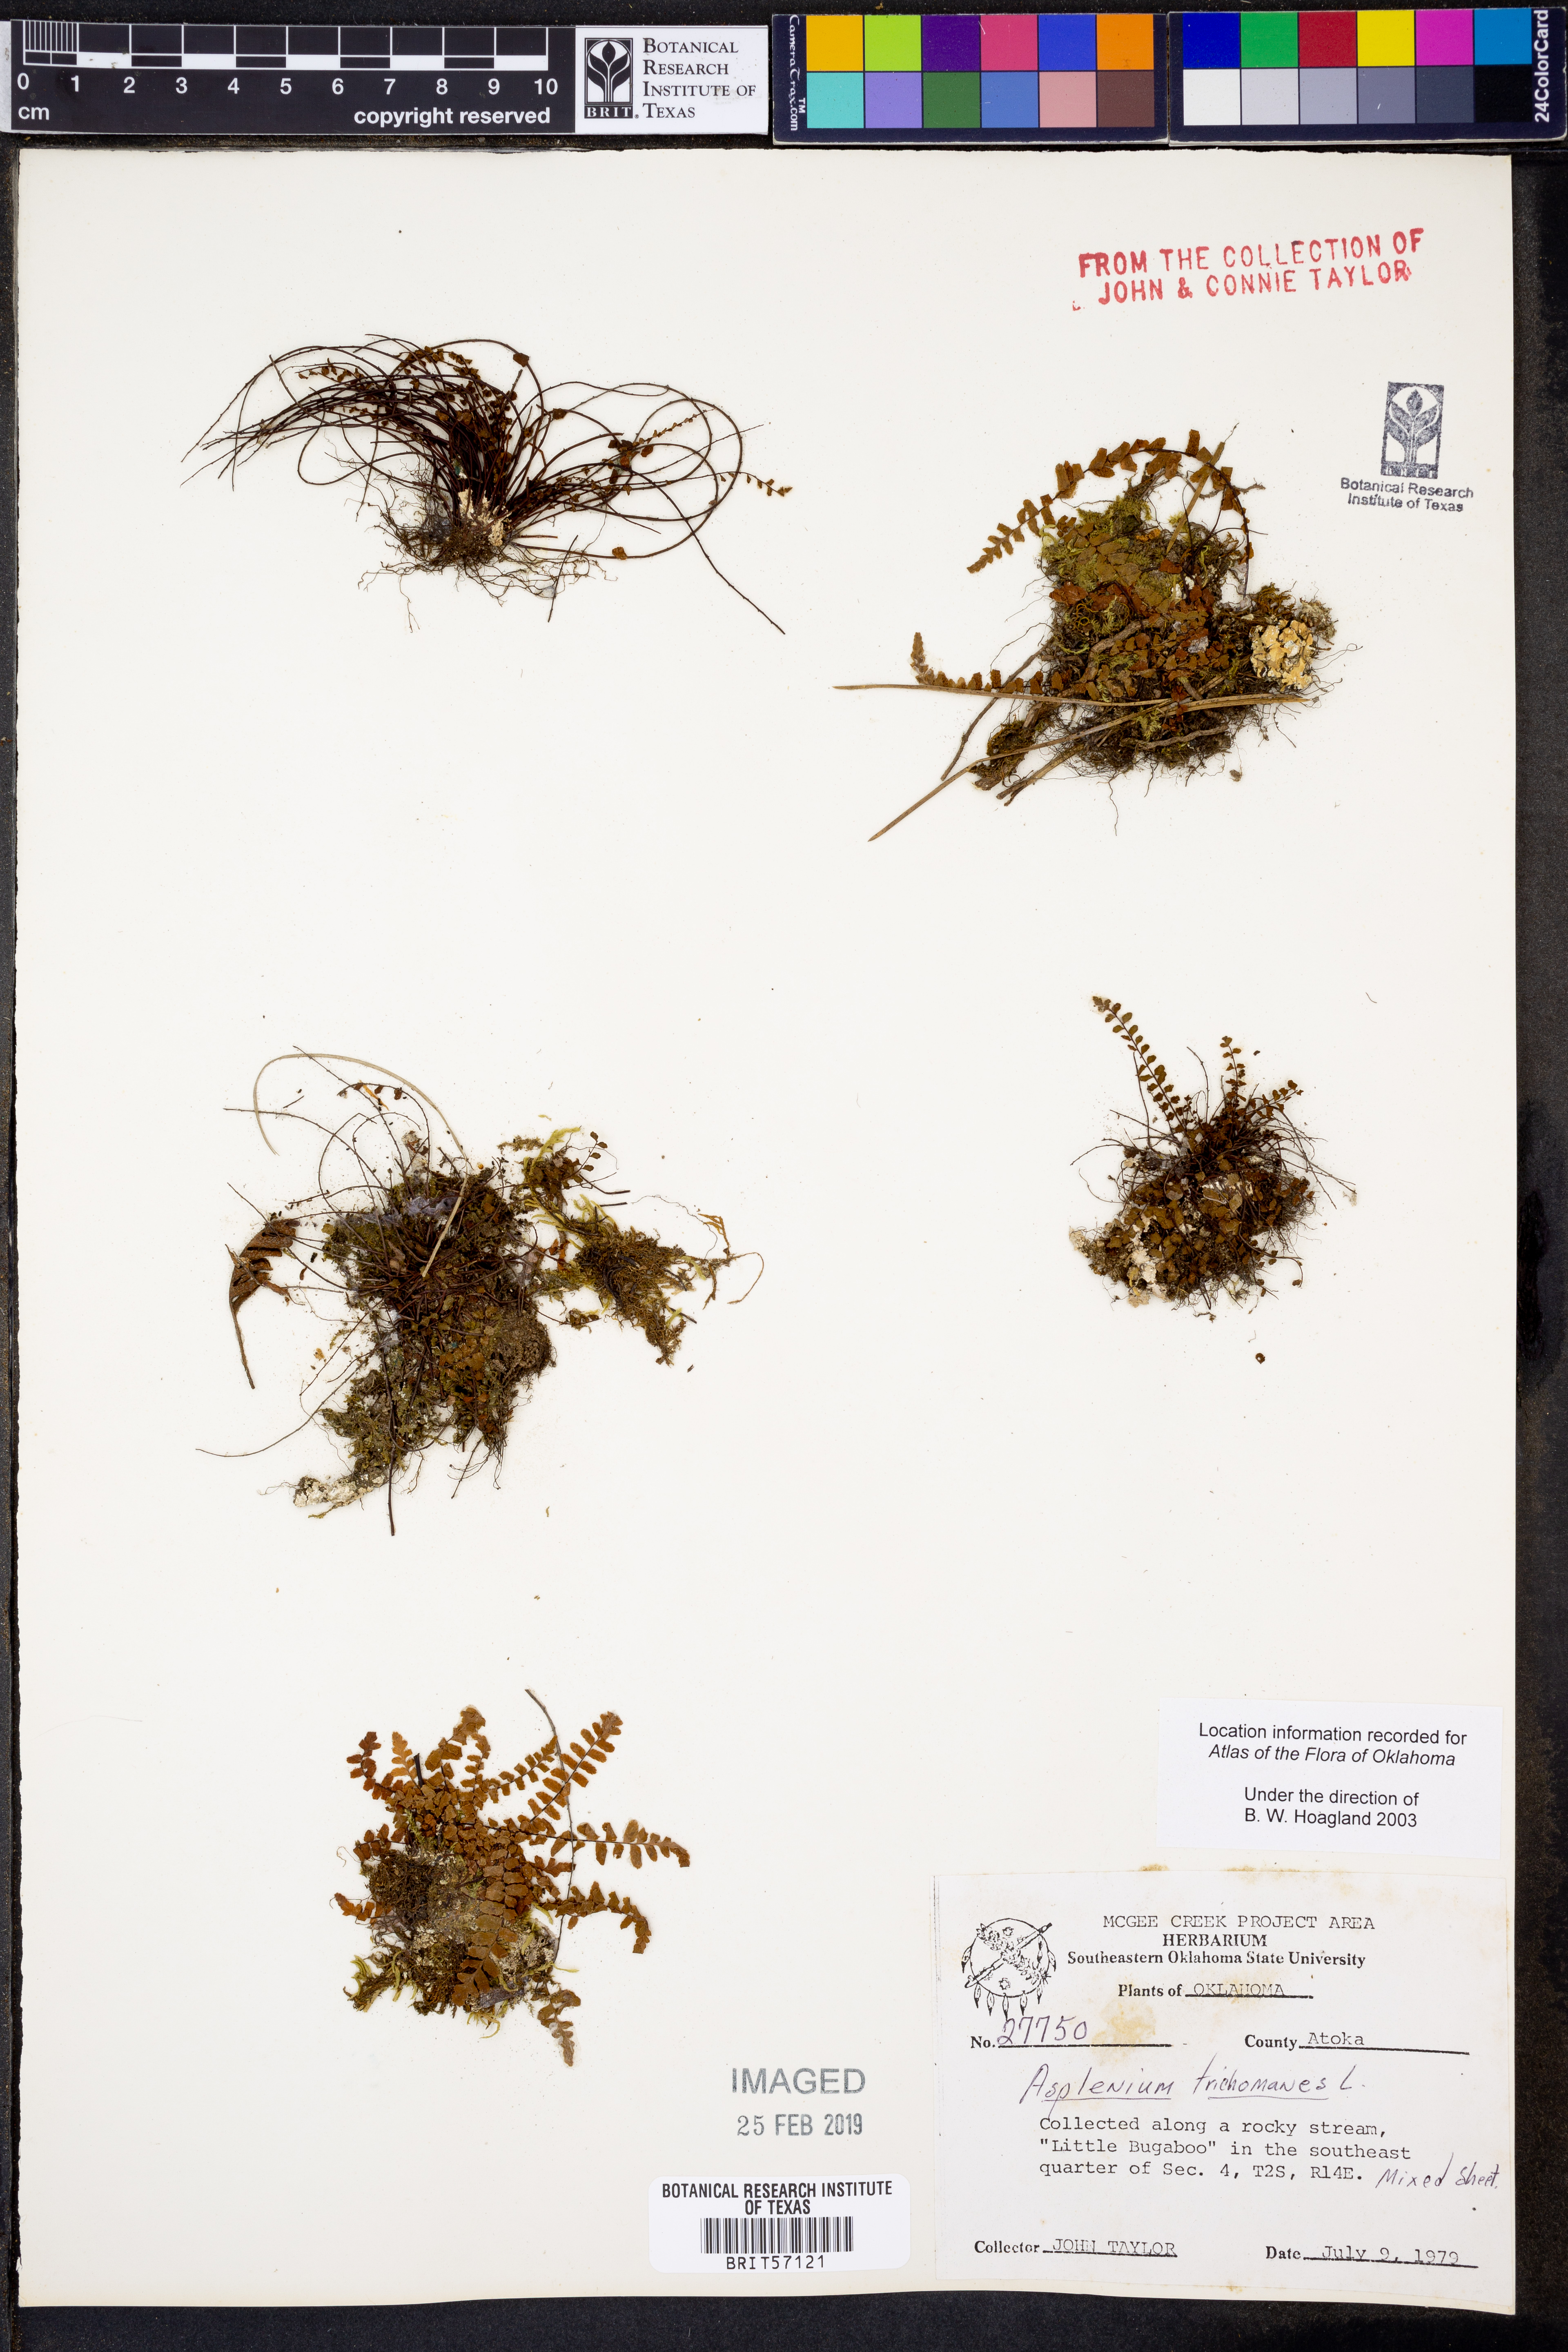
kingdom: Plantae
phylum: Tracheophyta
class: Polypodiopsida
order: Polypodiales
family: Aspleniaceae
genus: Asplenium
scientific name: Asplenium trichomanes
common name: Maidenhair spleenwort
